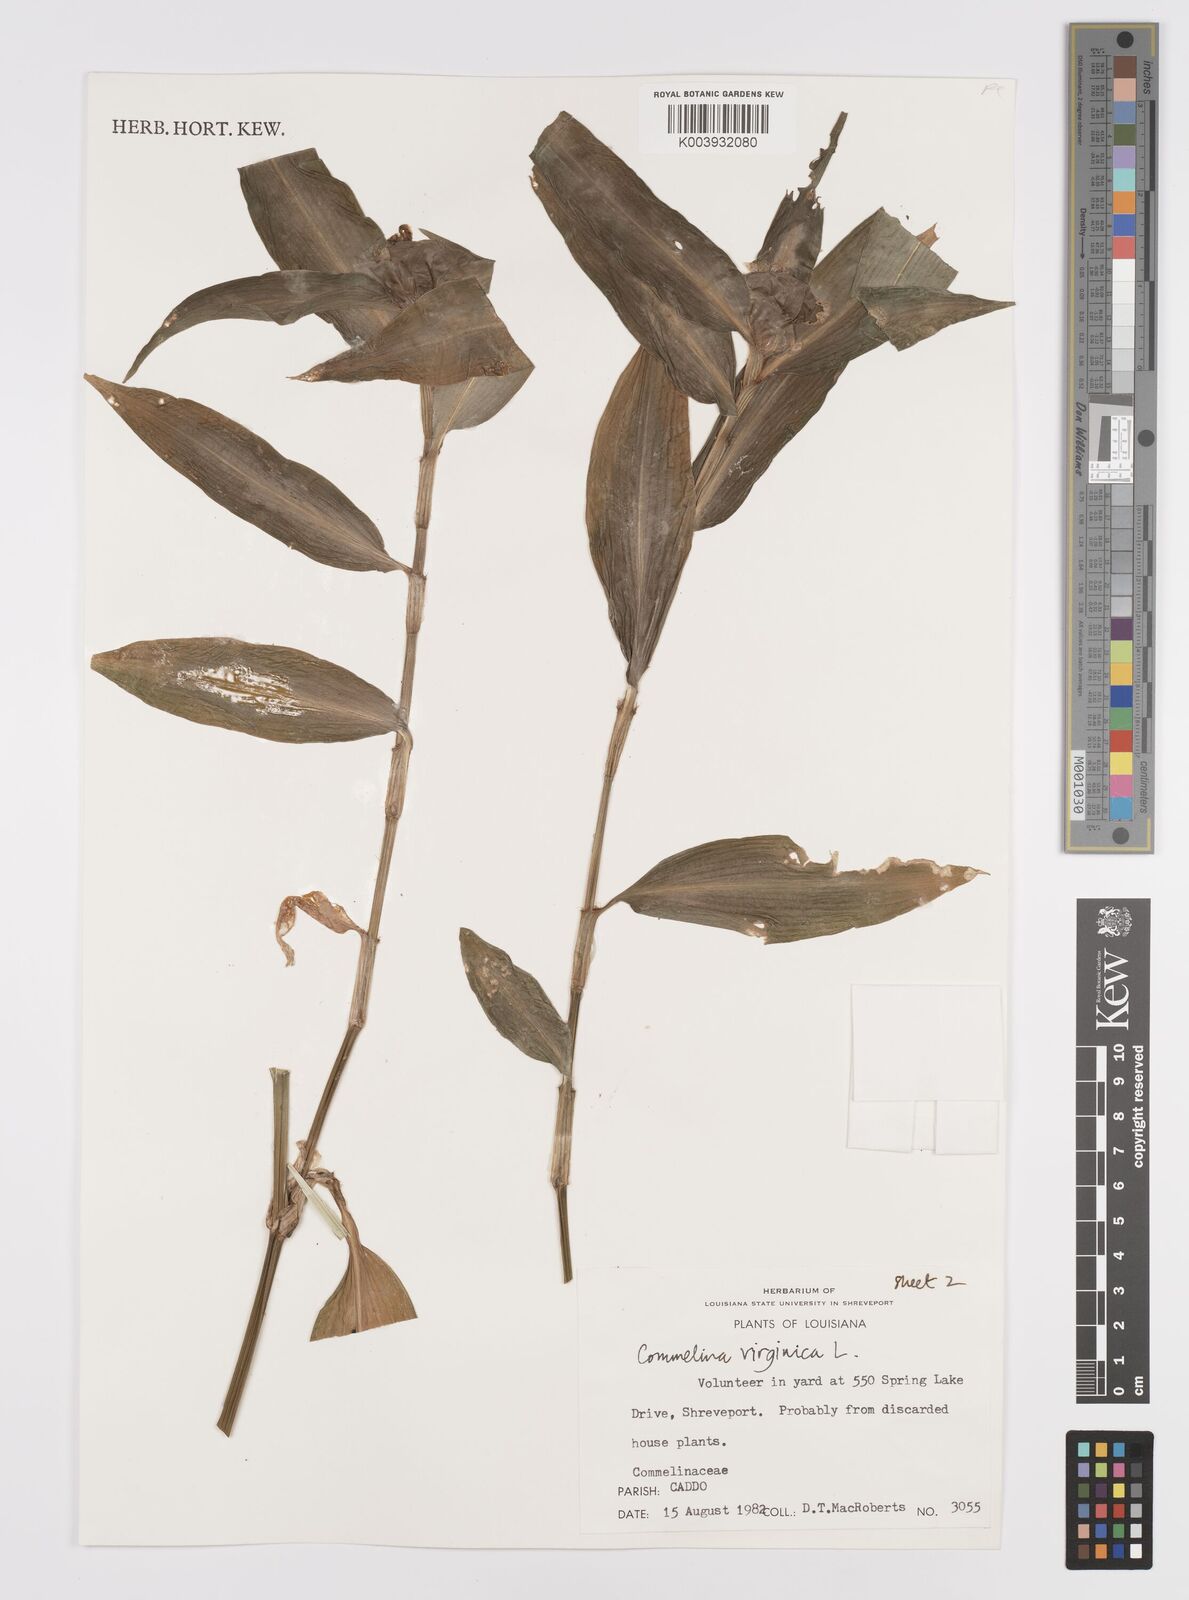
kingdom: Plantae
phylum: Tracheophyta
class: Liliopsida
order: Commelinales
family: Commelinaceae
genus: Commelina
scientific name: Commelina virginica
